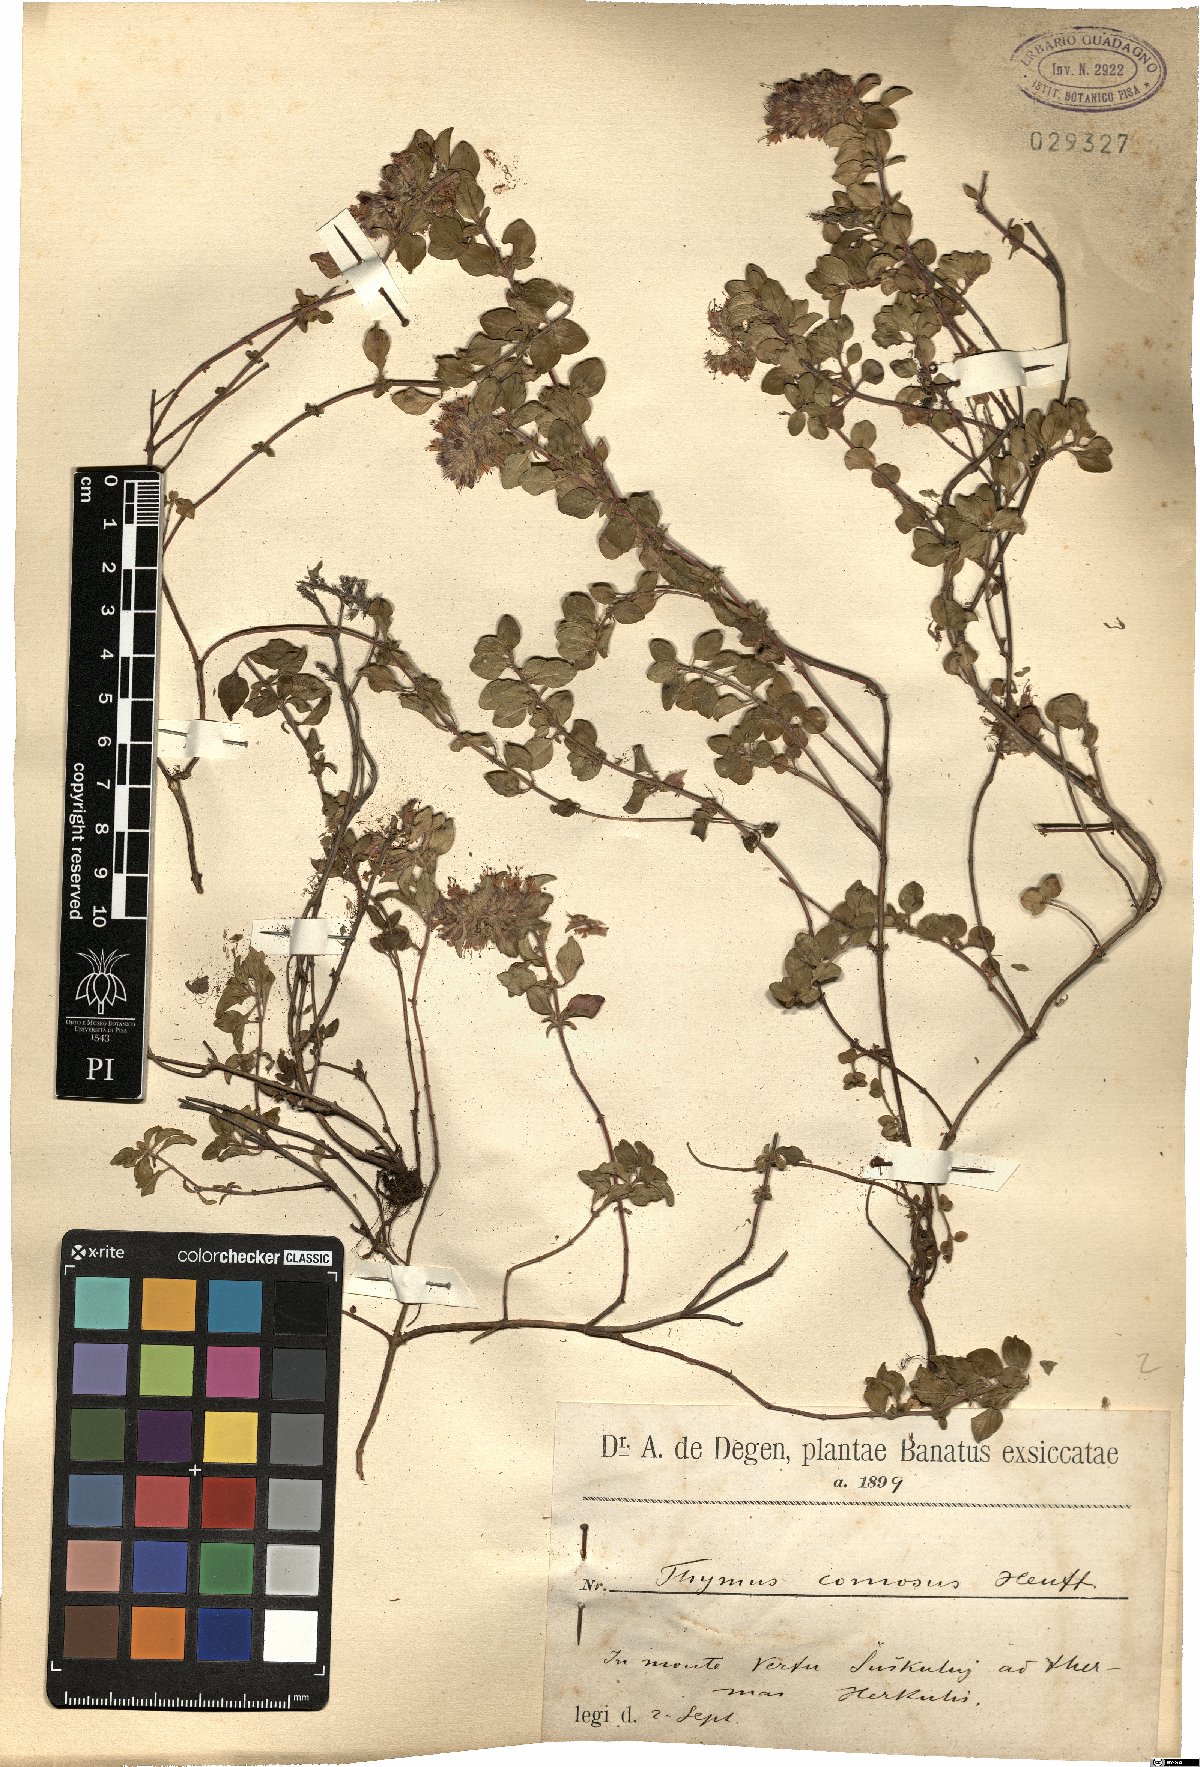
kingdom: Plantae
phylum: Tracheophyta
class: Magnoliopsida
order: Lamiales
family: Lamiaceae
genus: Thymus
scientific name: Thymus comosus
